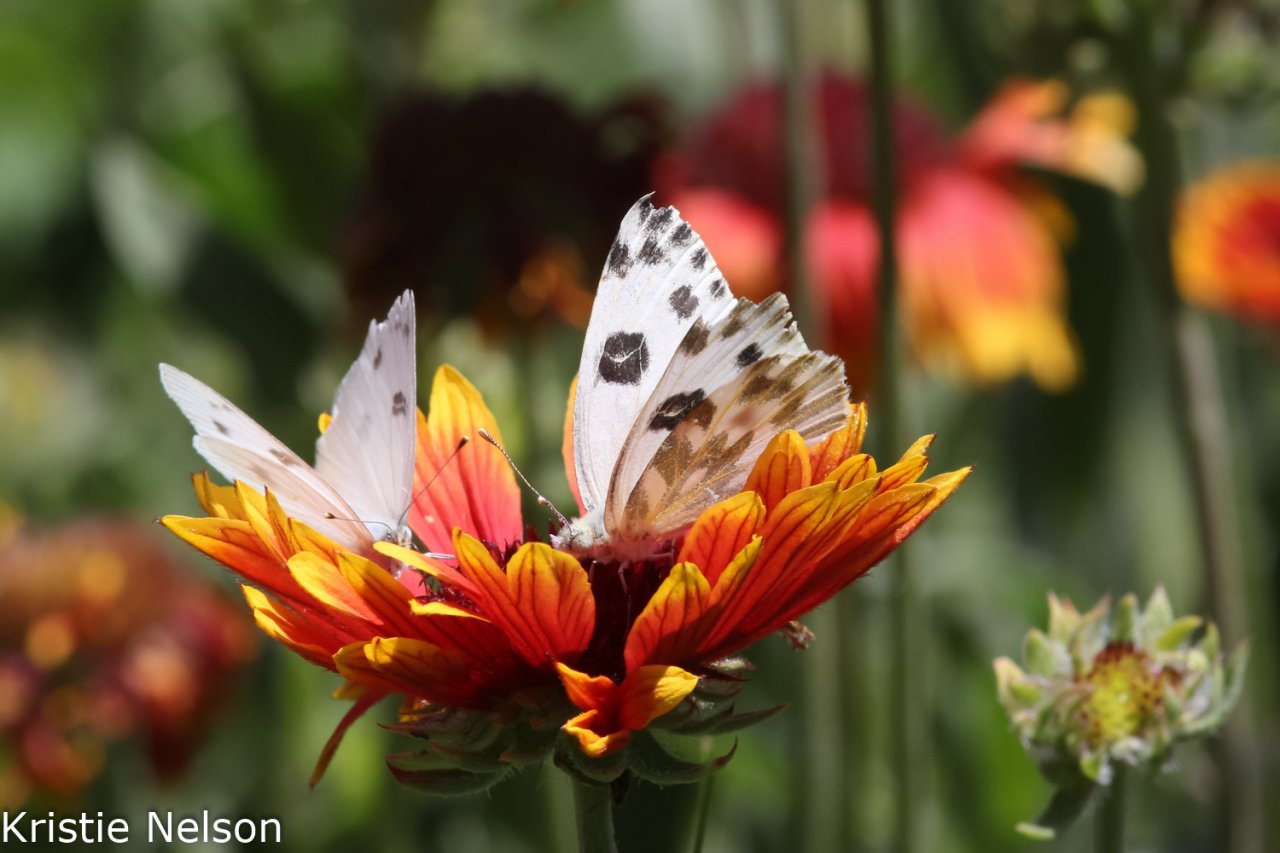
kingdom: Animalia
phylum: Arthropoda
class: Insecta
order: Lepidoptera
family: Pieridae
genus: Pontia
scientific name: Pontia protodice
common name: Checkered White
